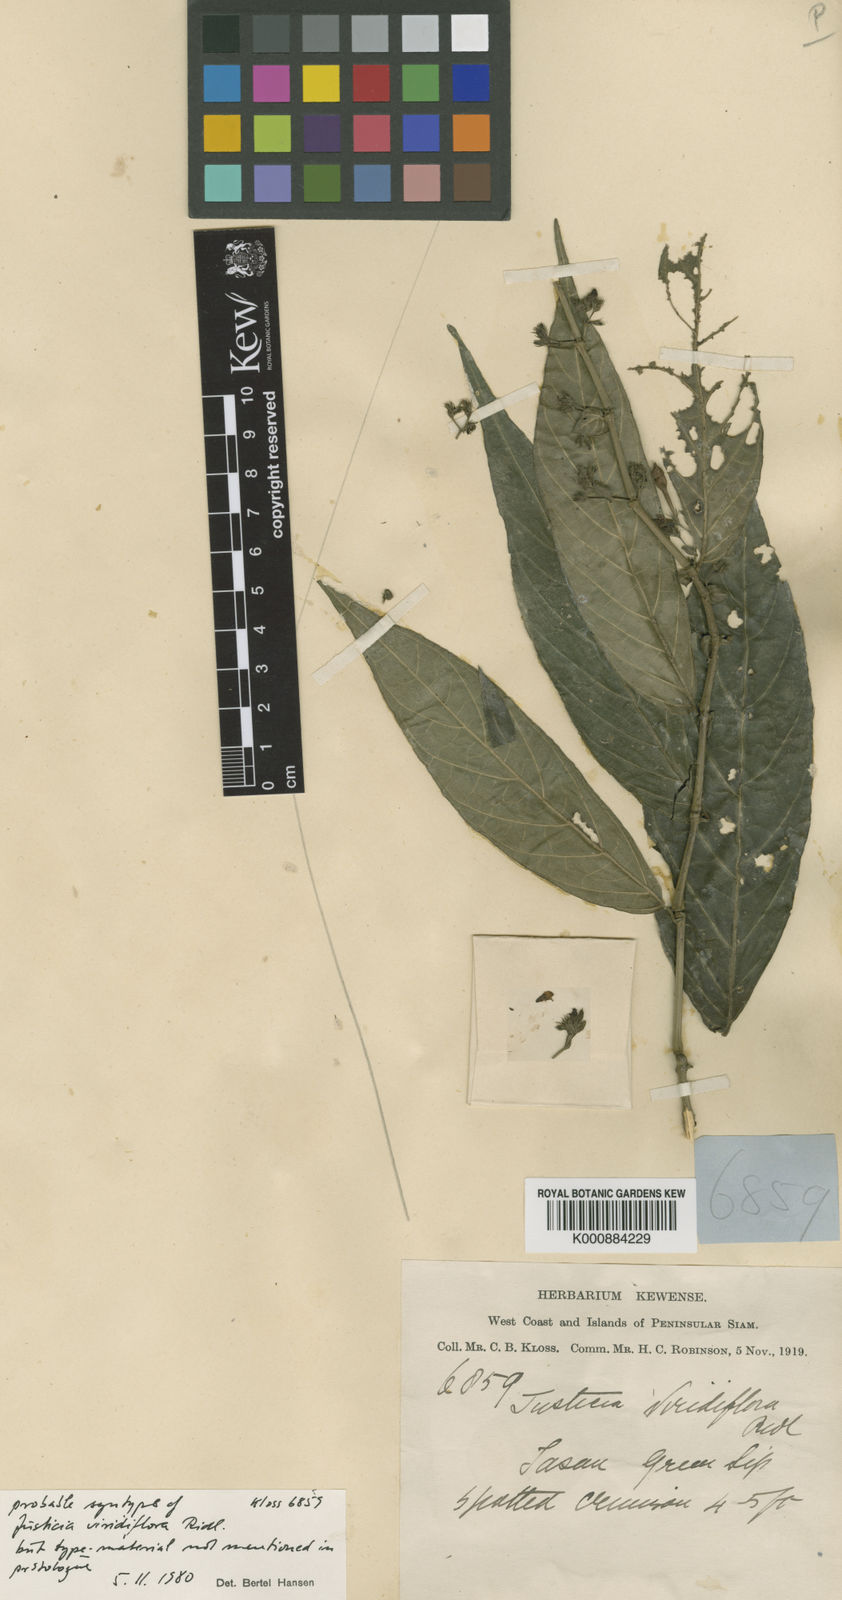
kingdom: Plantae
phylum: Tracheophyta
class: Magnoliopsida
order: Lamiales
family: Acanthaceae
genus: Justicia
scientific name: Justicia
